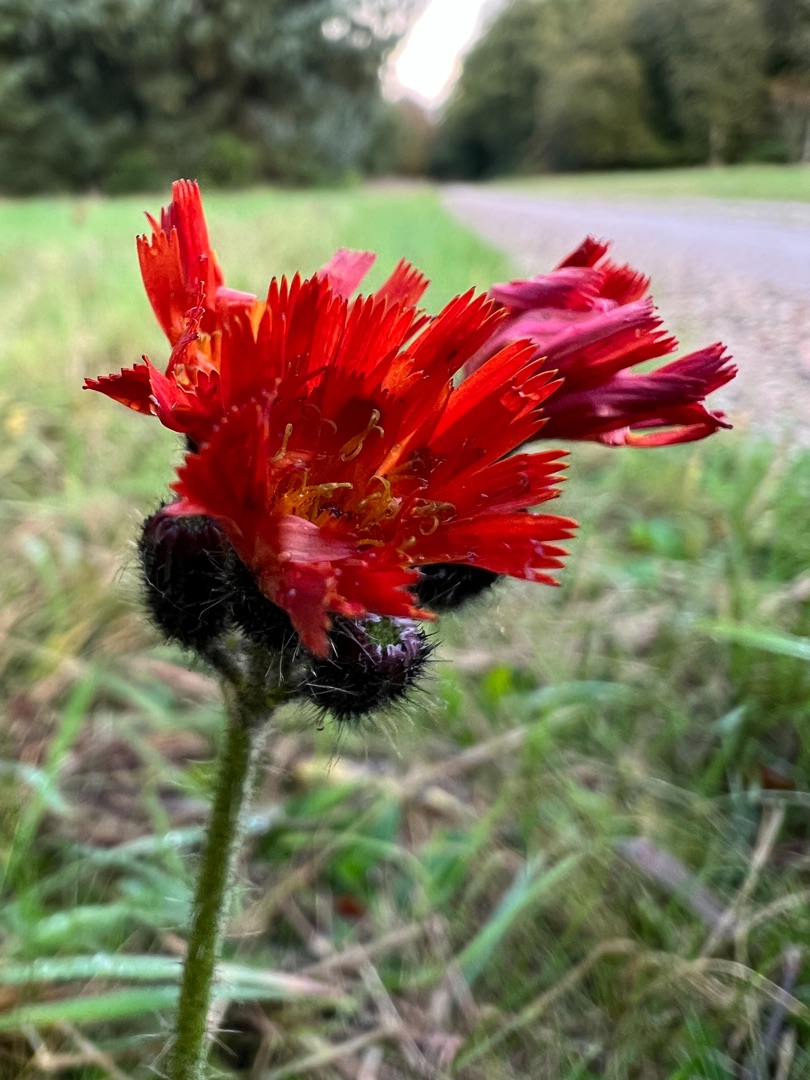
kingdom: Plantae
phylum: Tracheophyta
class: Magnoliopsida
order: Asterales
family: Asteraceae
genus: Pilosella
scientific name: Pilosella aurantiaca
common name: Pomerans-høgeurt
